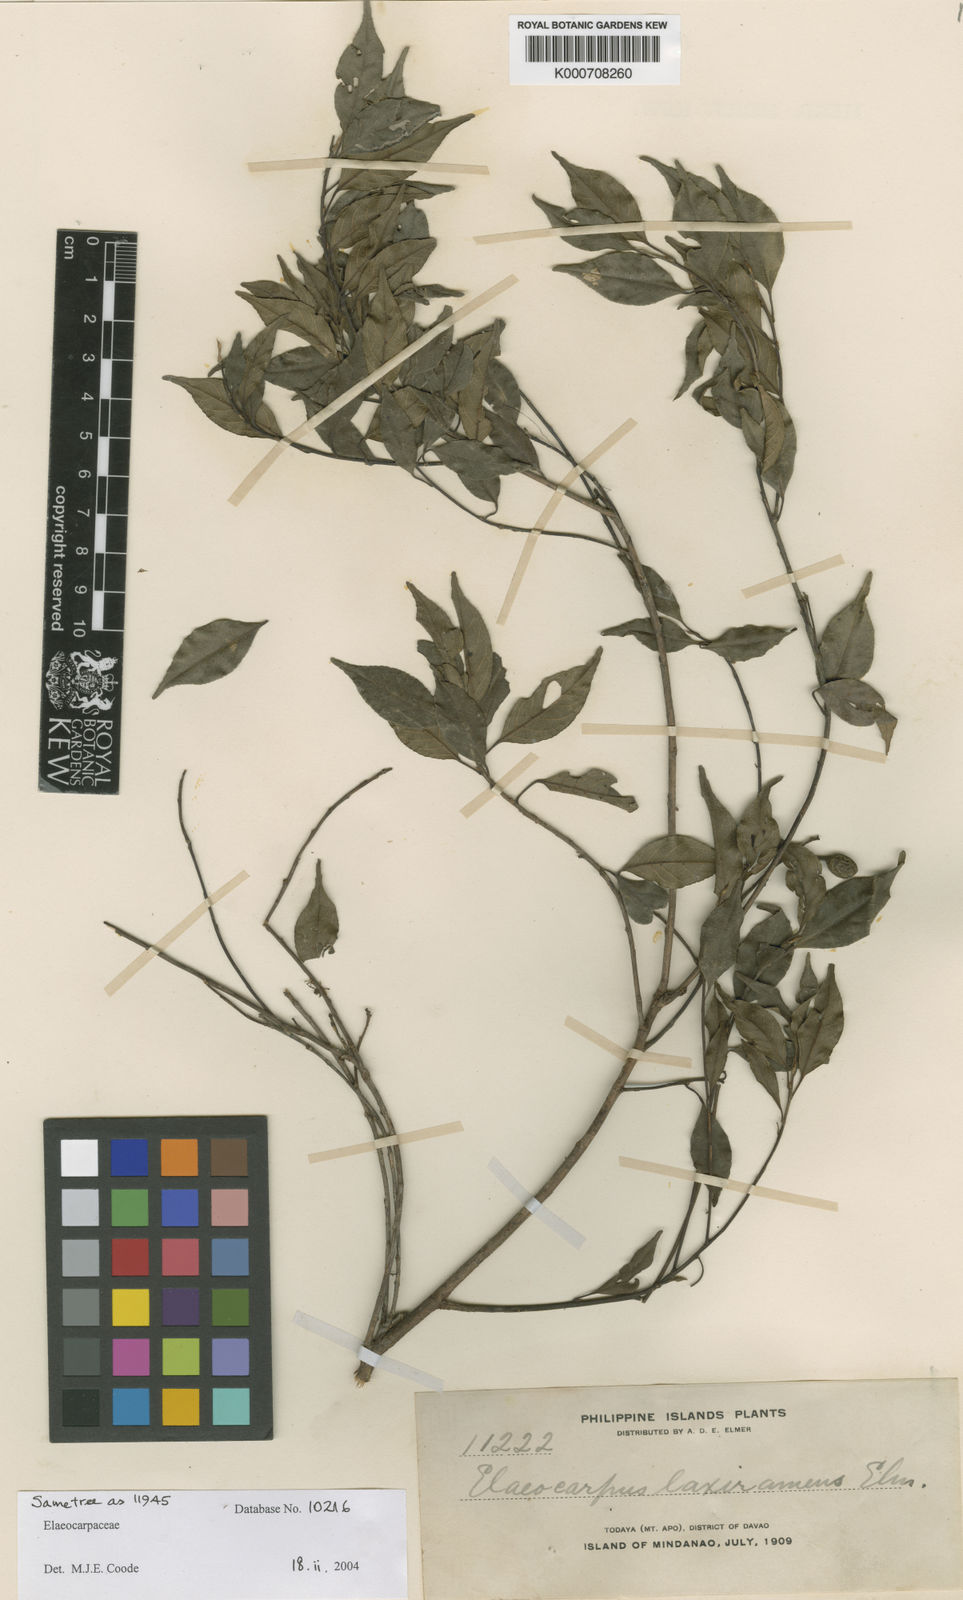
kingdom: Plantae
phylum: Tracheophyta
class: Magnoliopsida
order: Oxalidales
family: Elaeocarpaceae
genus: Elaeocarpus
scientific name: Elaeocarpus cuernosensis
